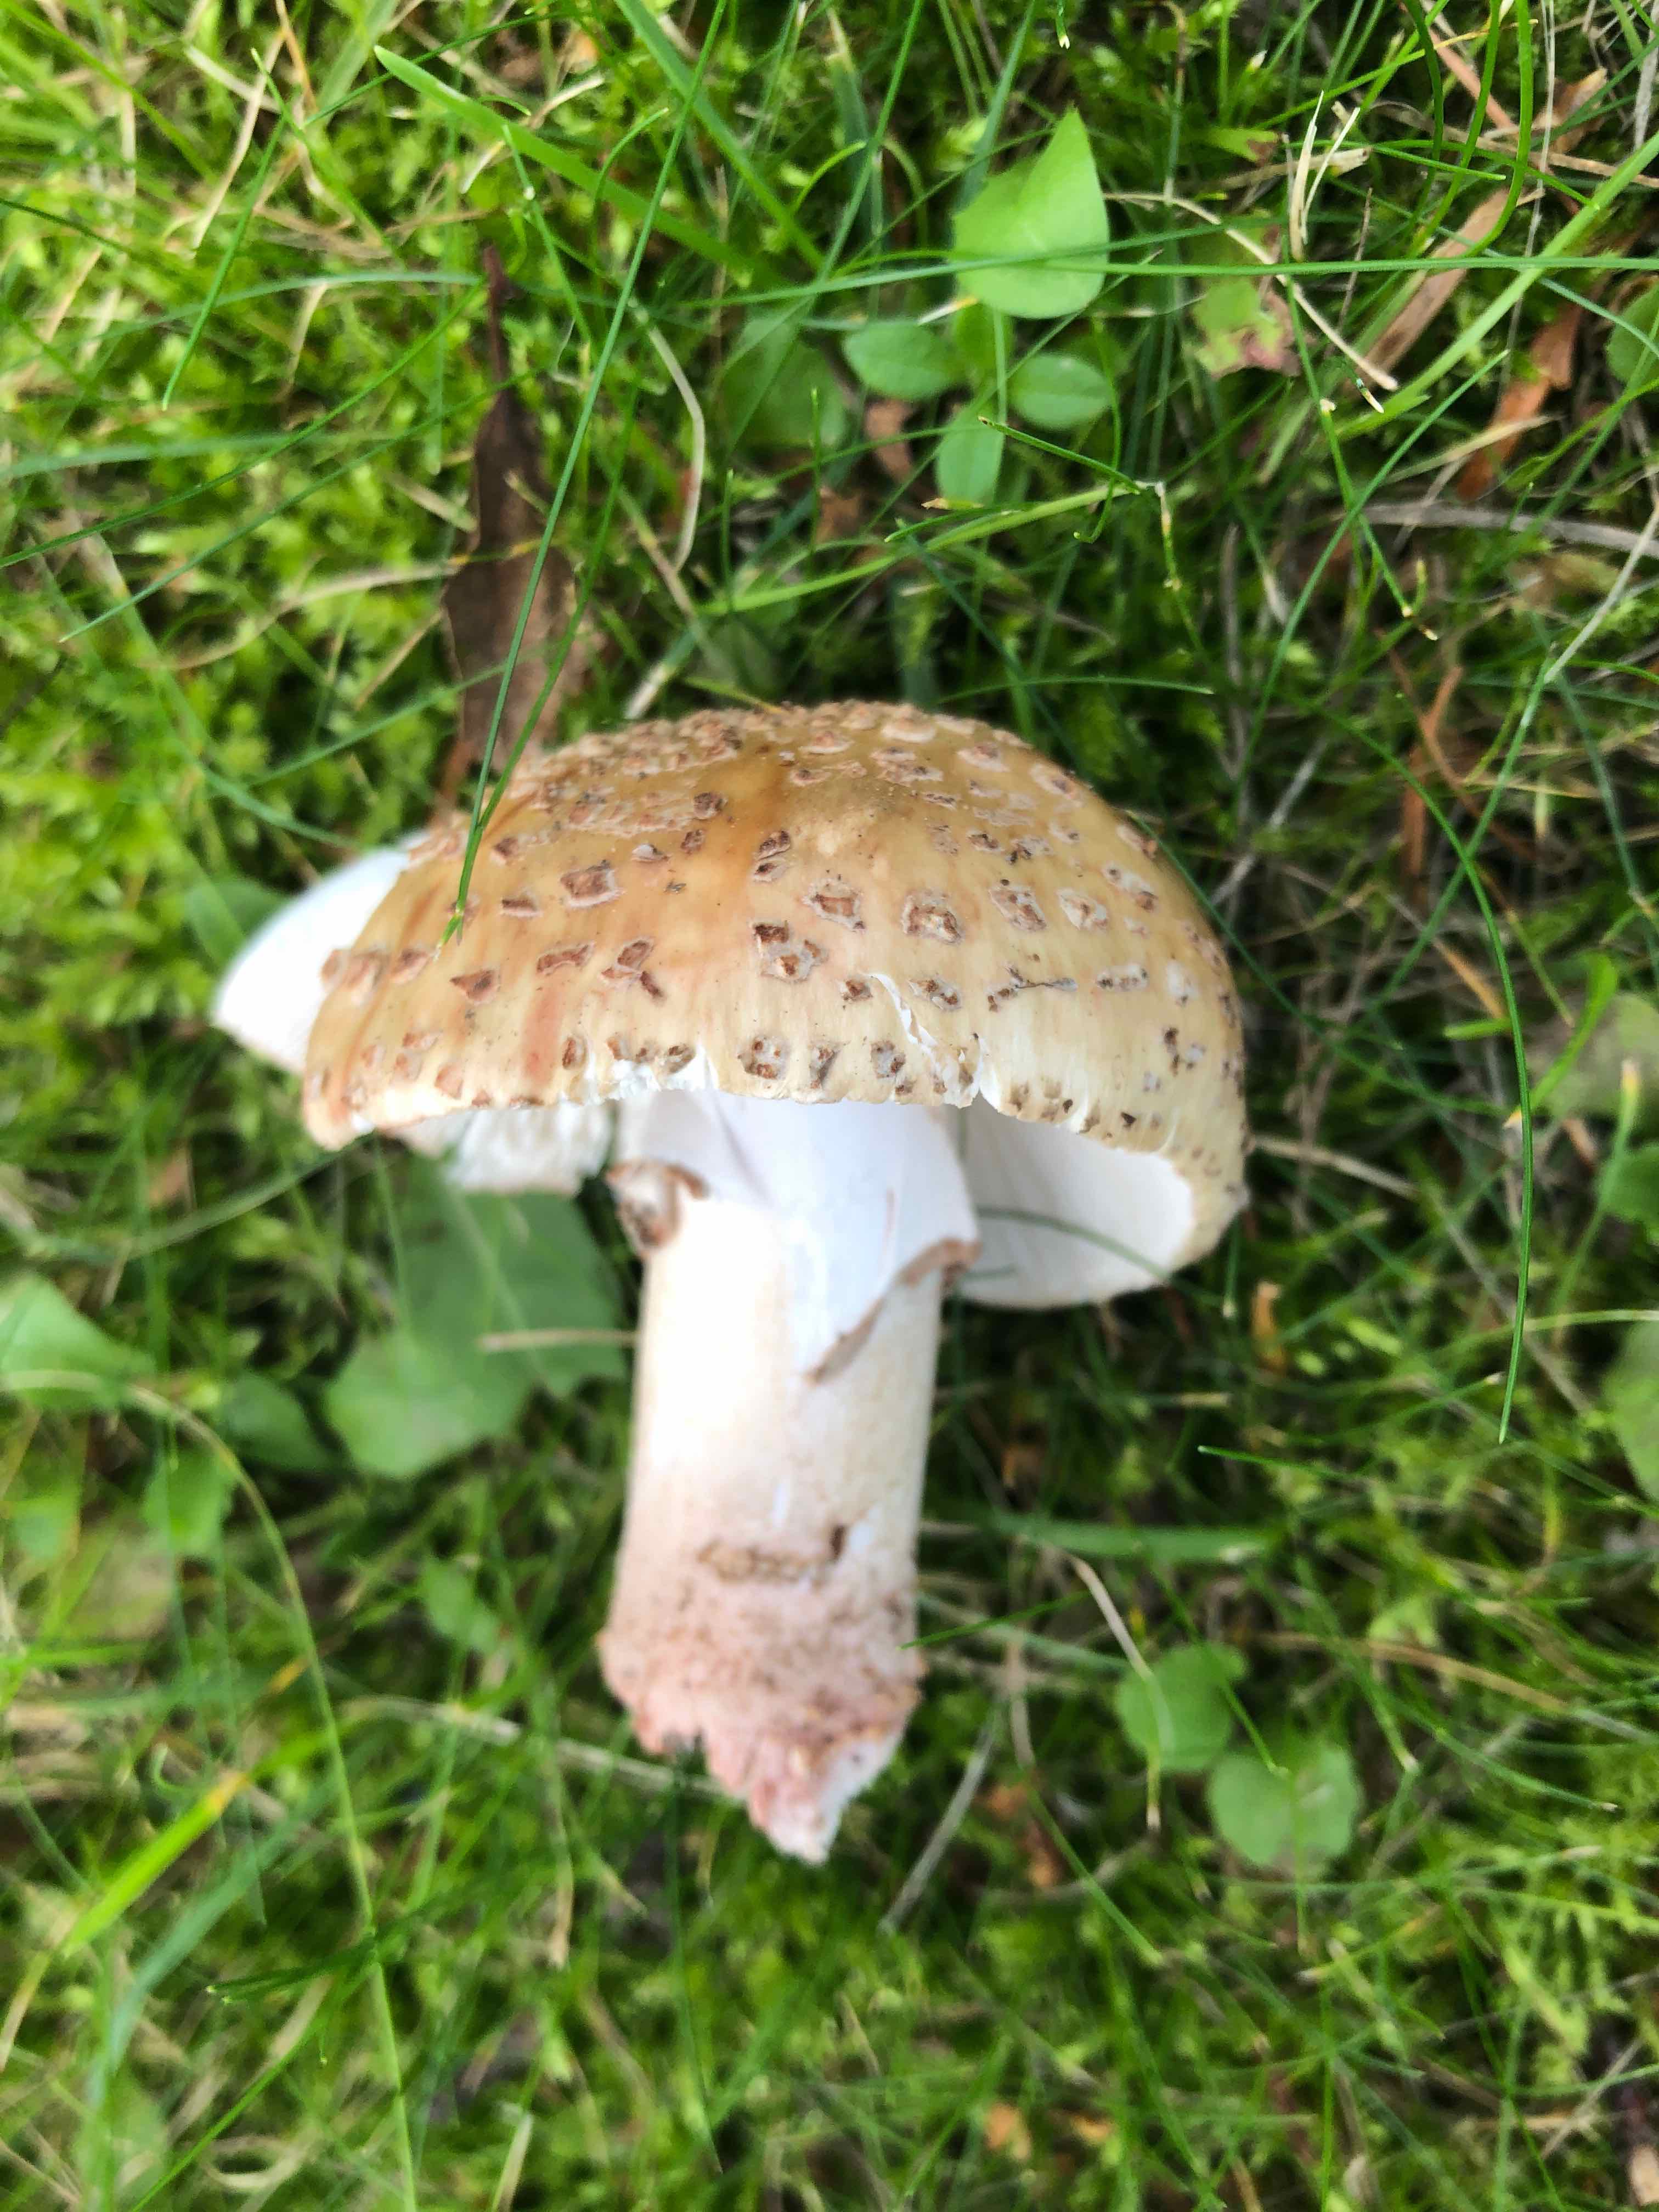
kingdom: Fungi
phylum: Basidiomycota
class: Agaricomycetes
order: Agaricales
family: Amanitaceae
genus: Amanita
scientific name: Amanita rubescens
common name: rødmende fluesvamp
